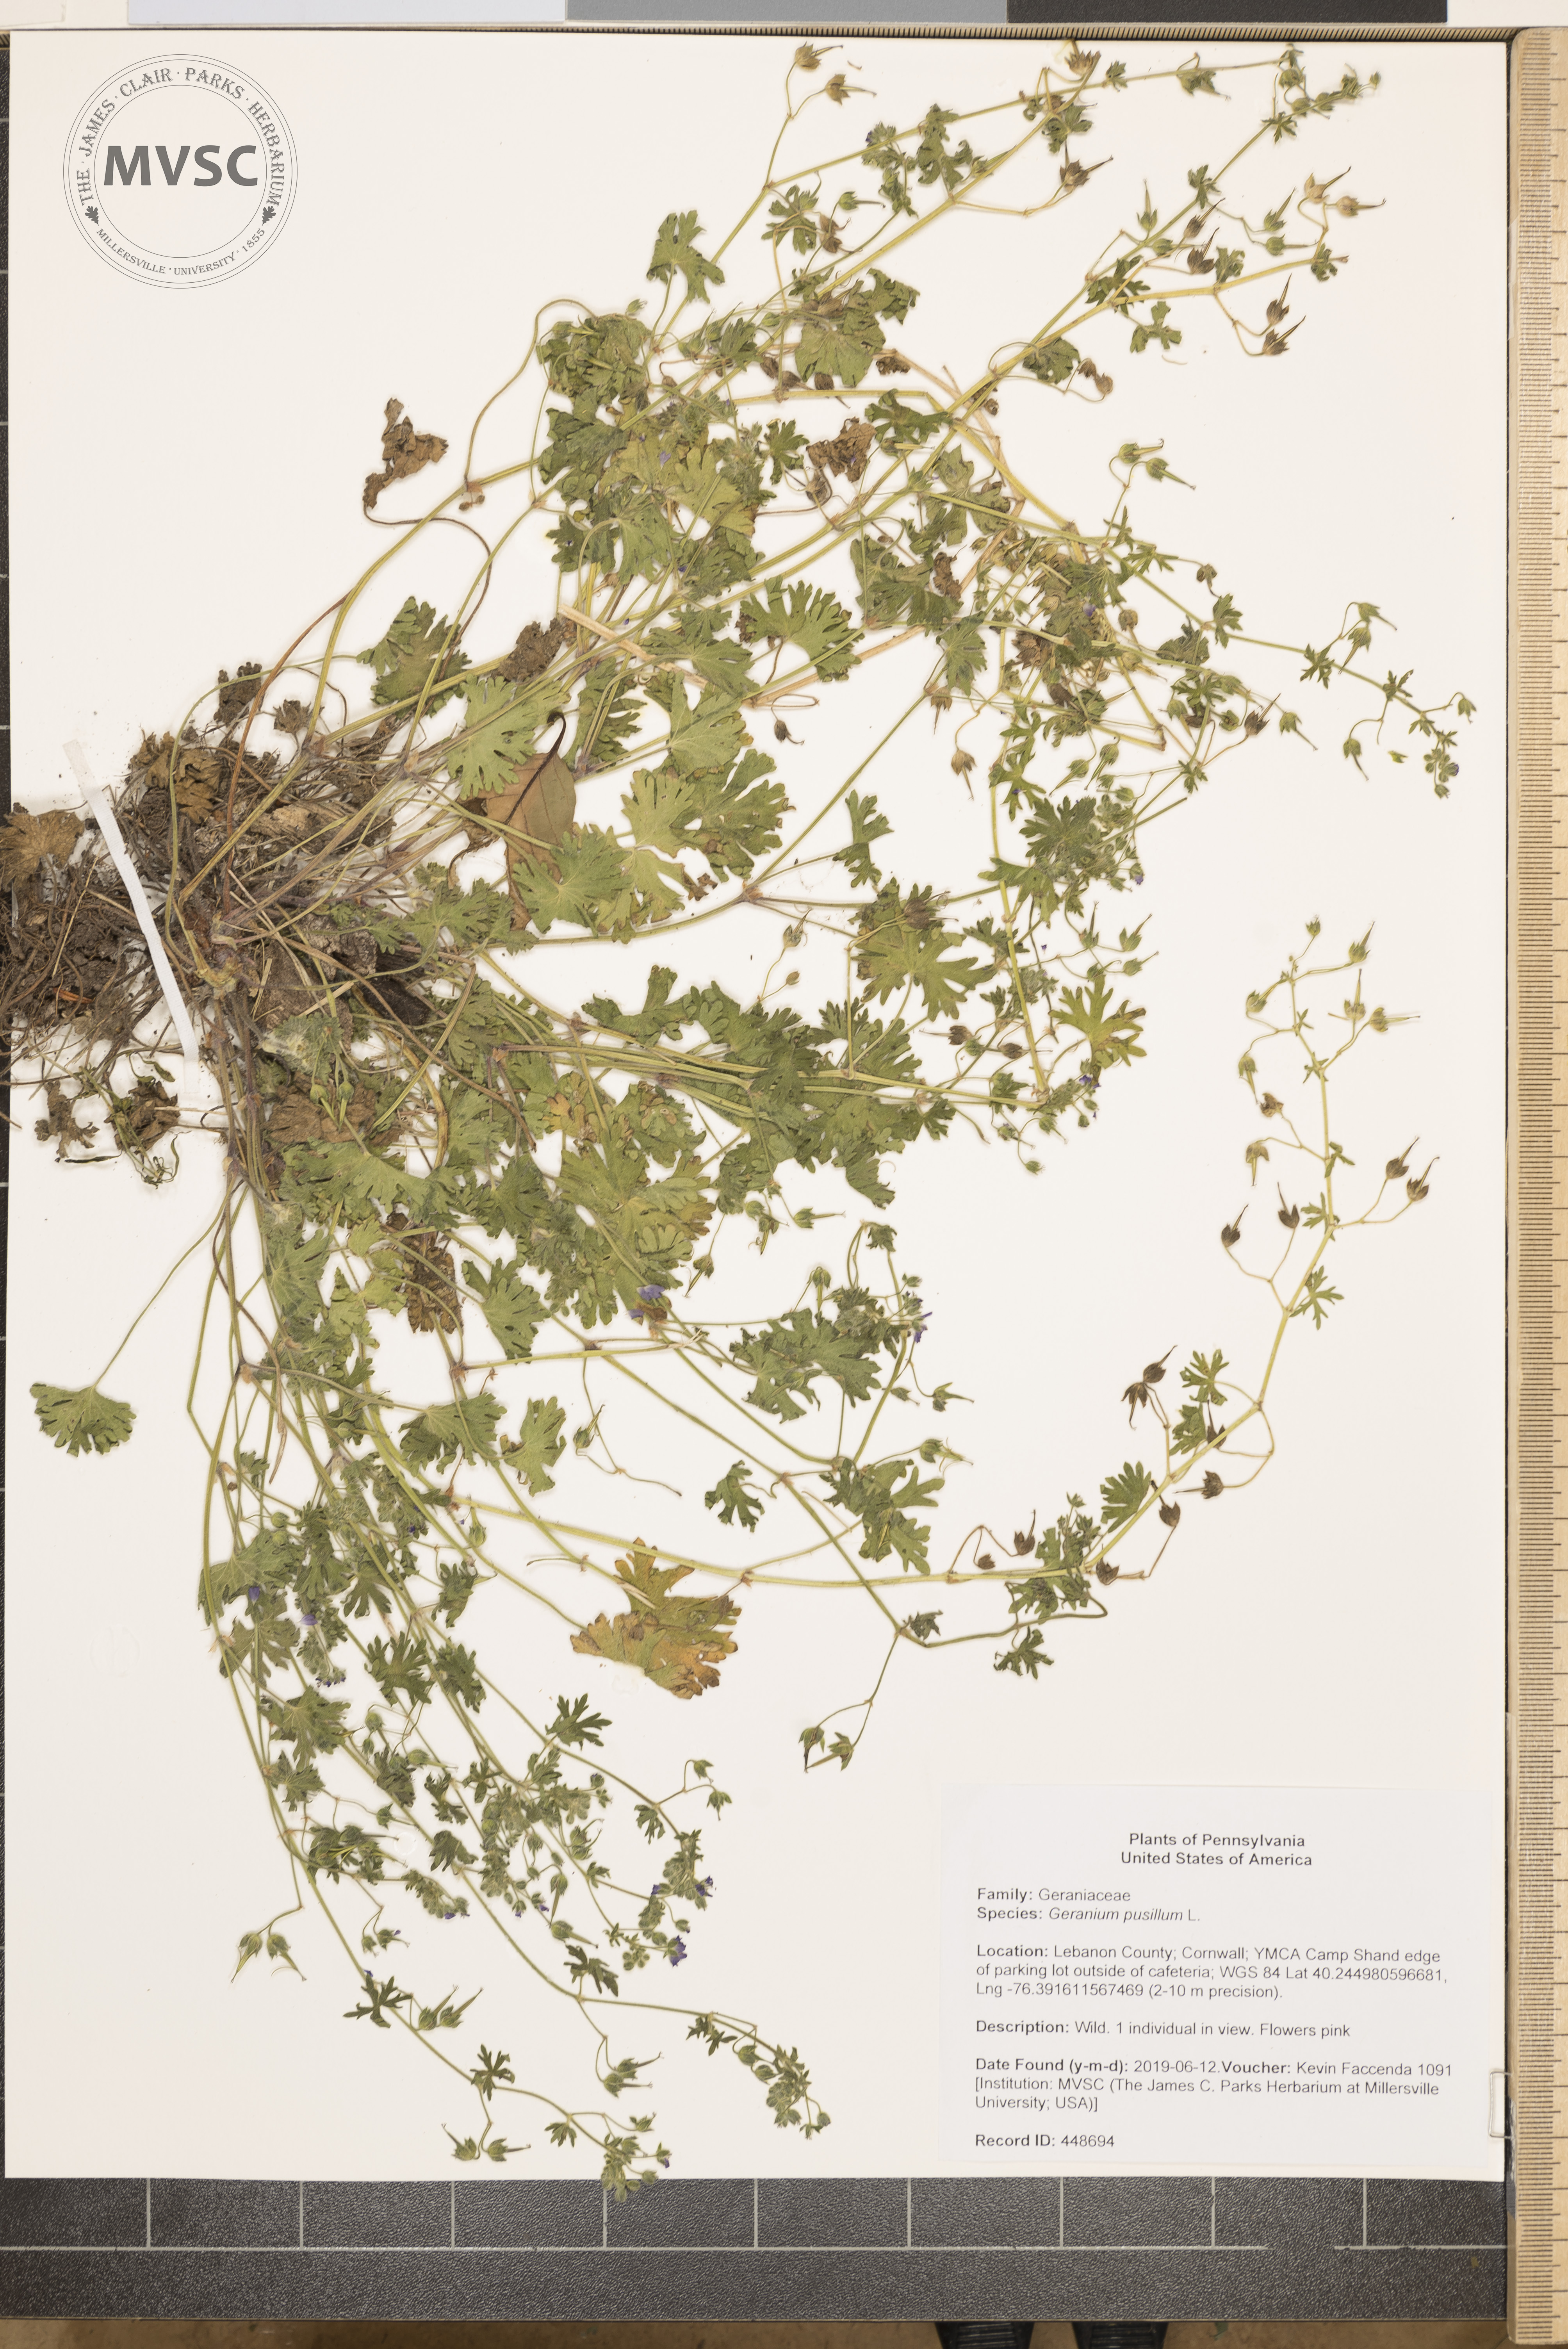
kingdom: Plantae
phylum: Tracheophyta
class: Magnoliopsida
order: Geraniales
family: Geraniaceae
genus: Geranium
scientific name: Geranium pusillum
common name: Small geranium
